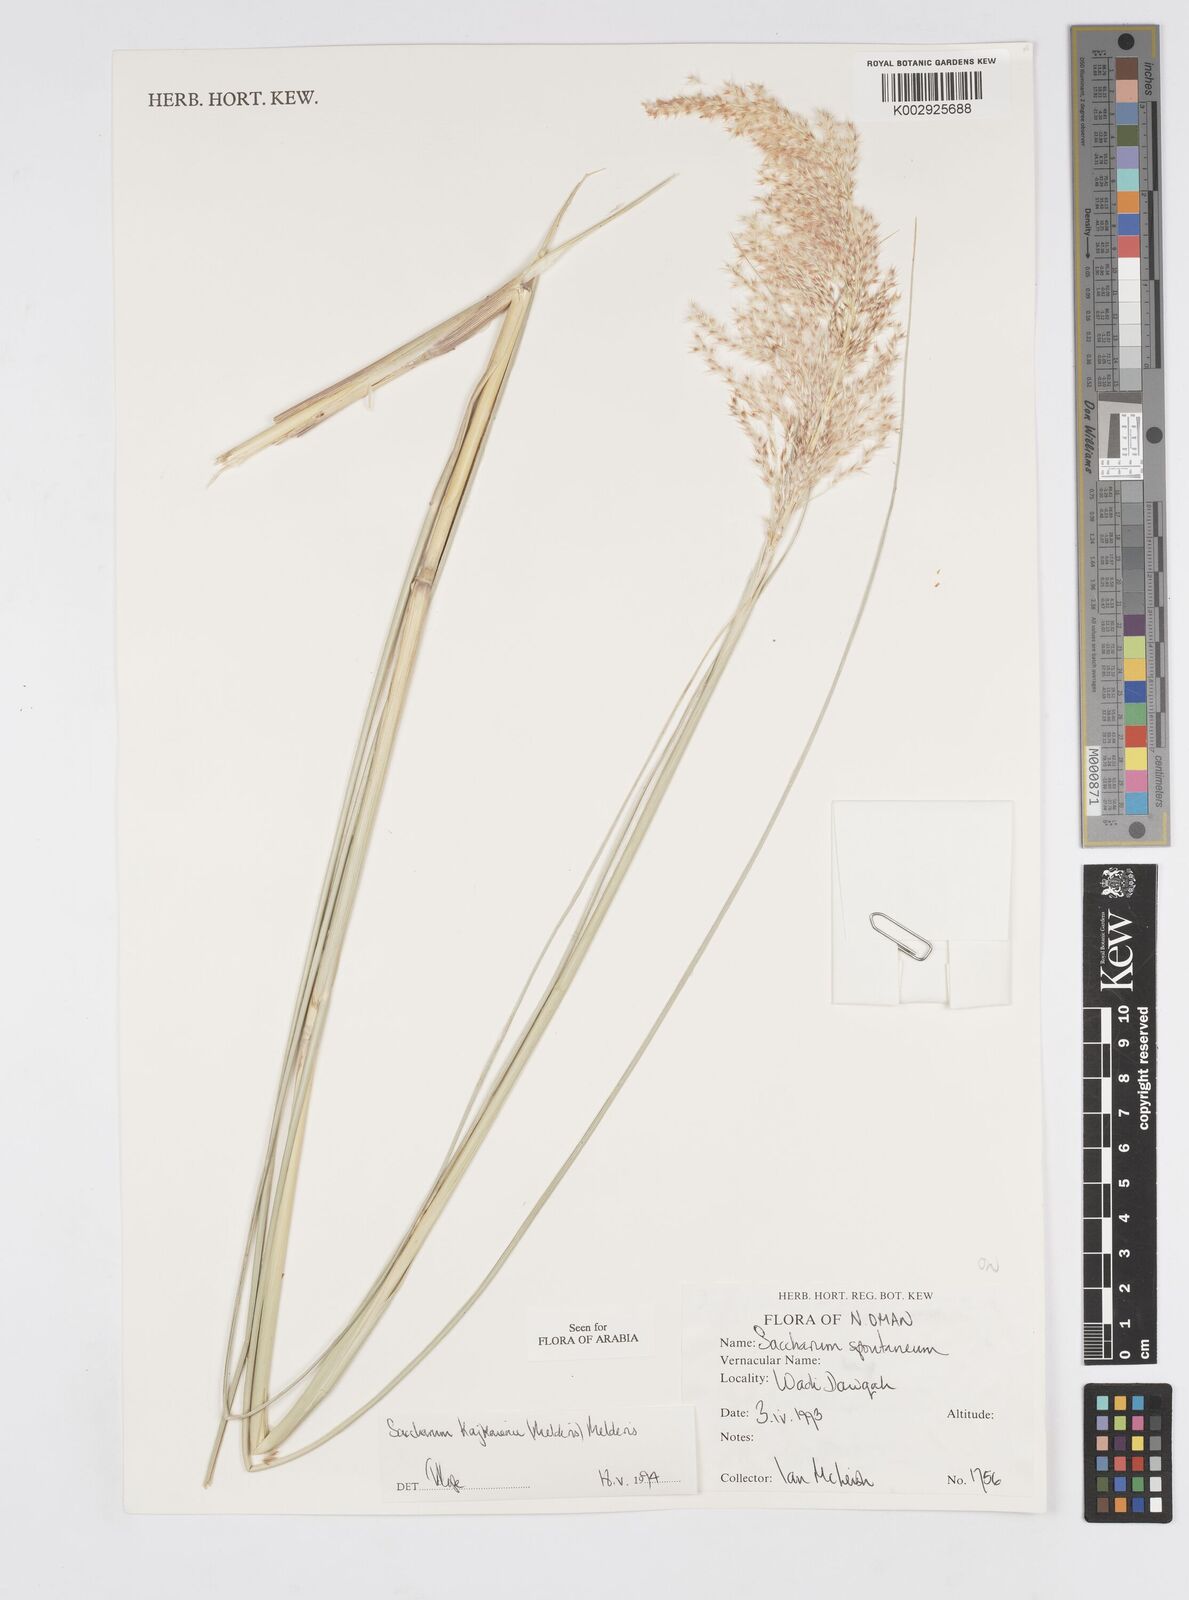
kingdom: Plantae
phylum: Tracheophyta
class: Liliopsida
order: Poales
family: Poaceae
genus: Saccharum
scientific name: Saccharum kajkaiense
